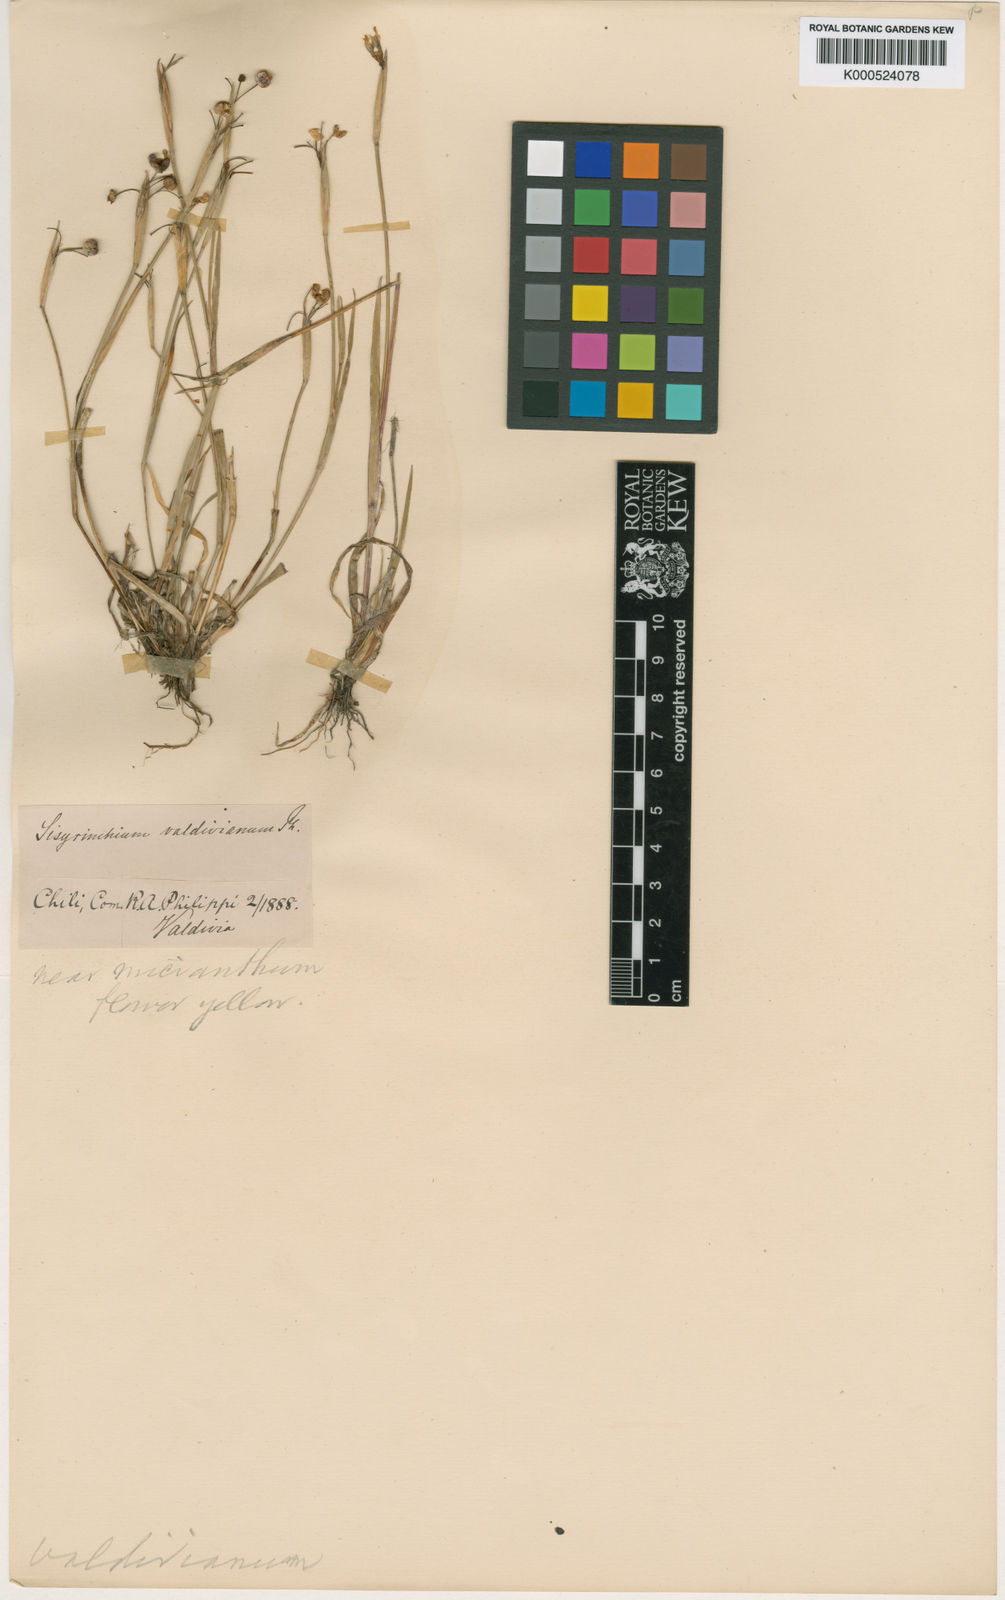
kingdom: Plantae
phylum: Tracheophyta
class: Liliopsida
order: Asparagales
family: Iridaceae
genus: Sisyrinchium
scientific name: Sisyrinchium chilense
